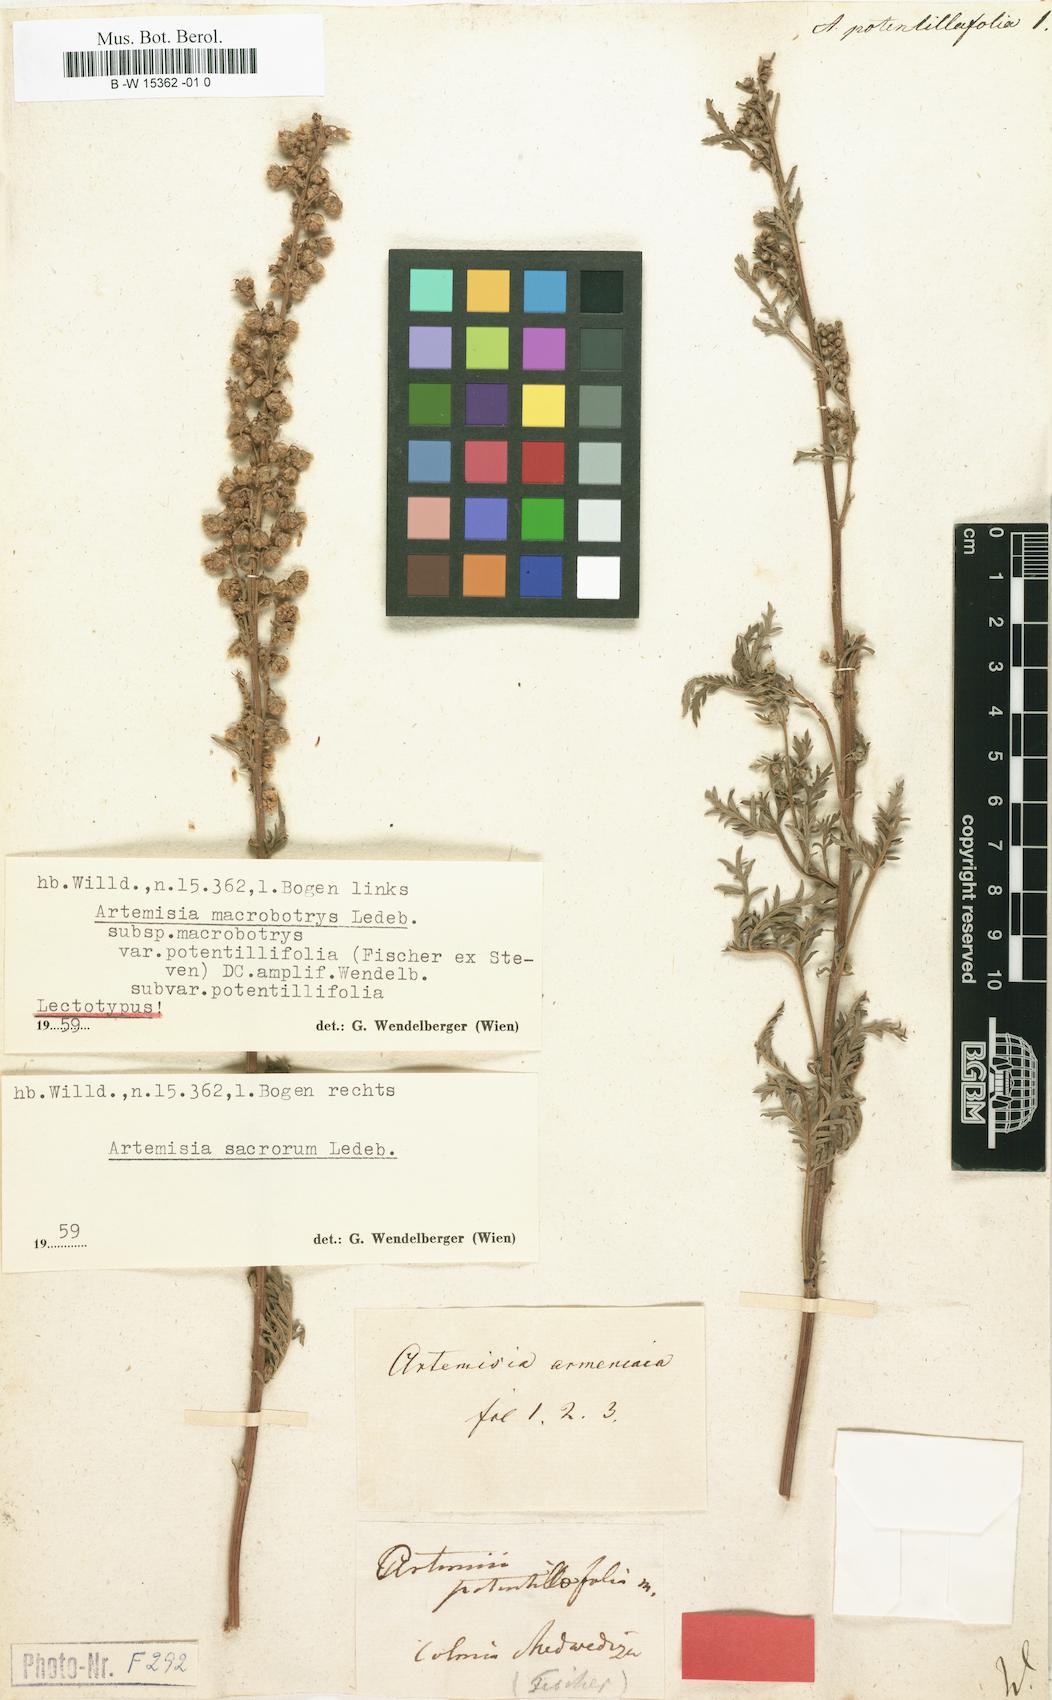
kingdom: Plantae
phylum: Tracheophyta
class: Magnoliopsida
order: Asterales
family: Asteraceae
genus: Artemisia
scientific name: Artemisia vestita
